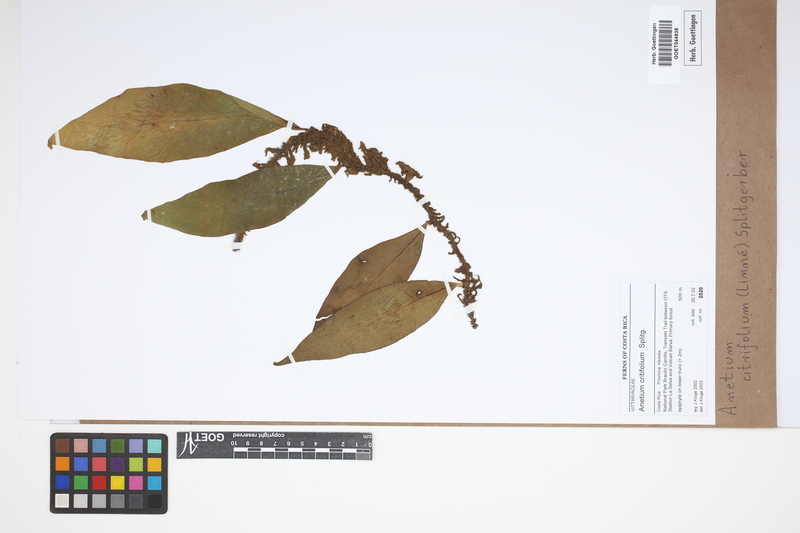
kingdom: Plantae
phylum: Tracheophyta
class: Polypodiopsida
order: Polypodiales
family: Pteridaceae
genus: Polytaenium
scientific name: Polytaenium citrifolium
